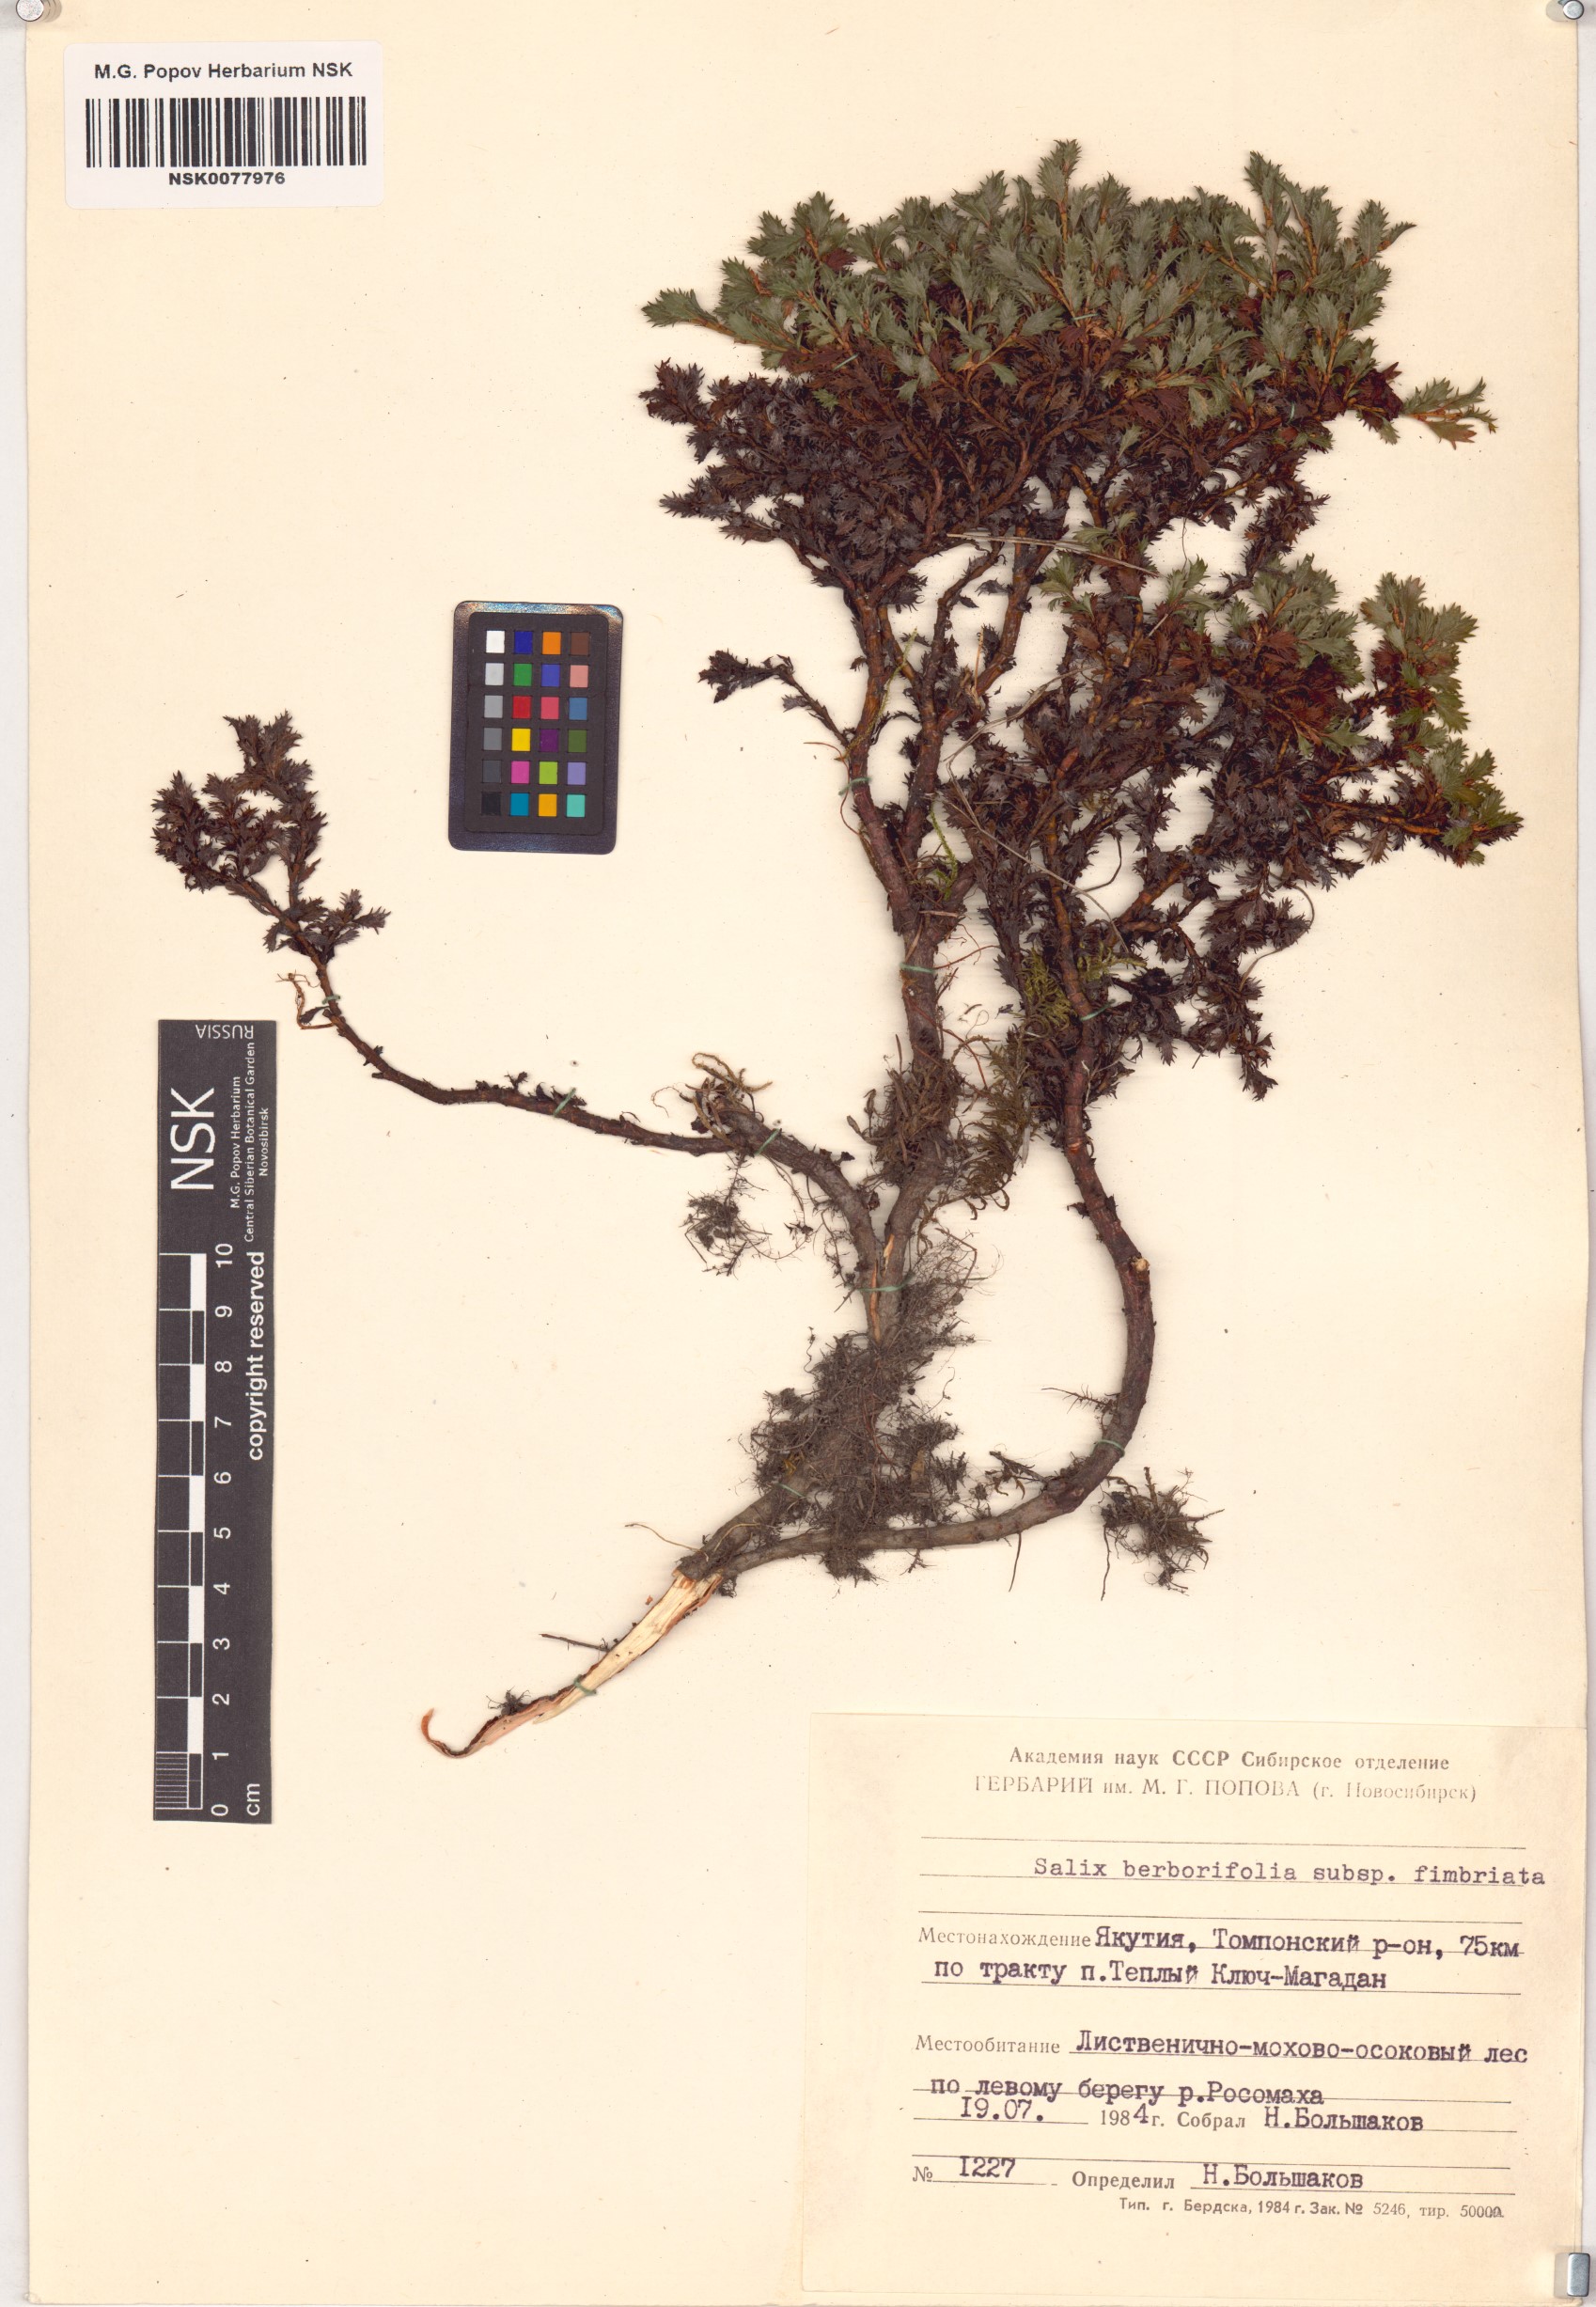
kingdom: Plantae
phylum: Tracheophyta
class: Magnoliopsida
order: Malpighiales
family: Salicaceae
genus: Salix
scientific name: Salix berberifolia
